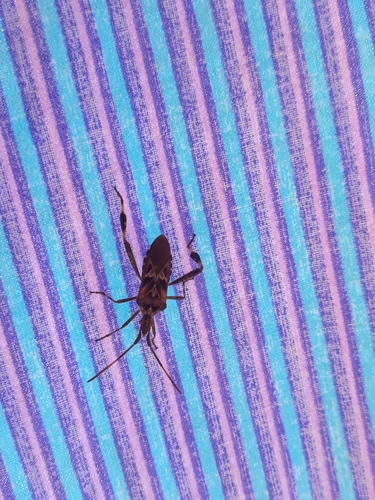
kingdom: Animalia
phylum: Arthropoda
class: Insecta
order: Hemiptera
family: Coreidae
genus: Leptoglossus
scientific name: Leptoglossus occidentalis
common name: Western conifer-seed bug
